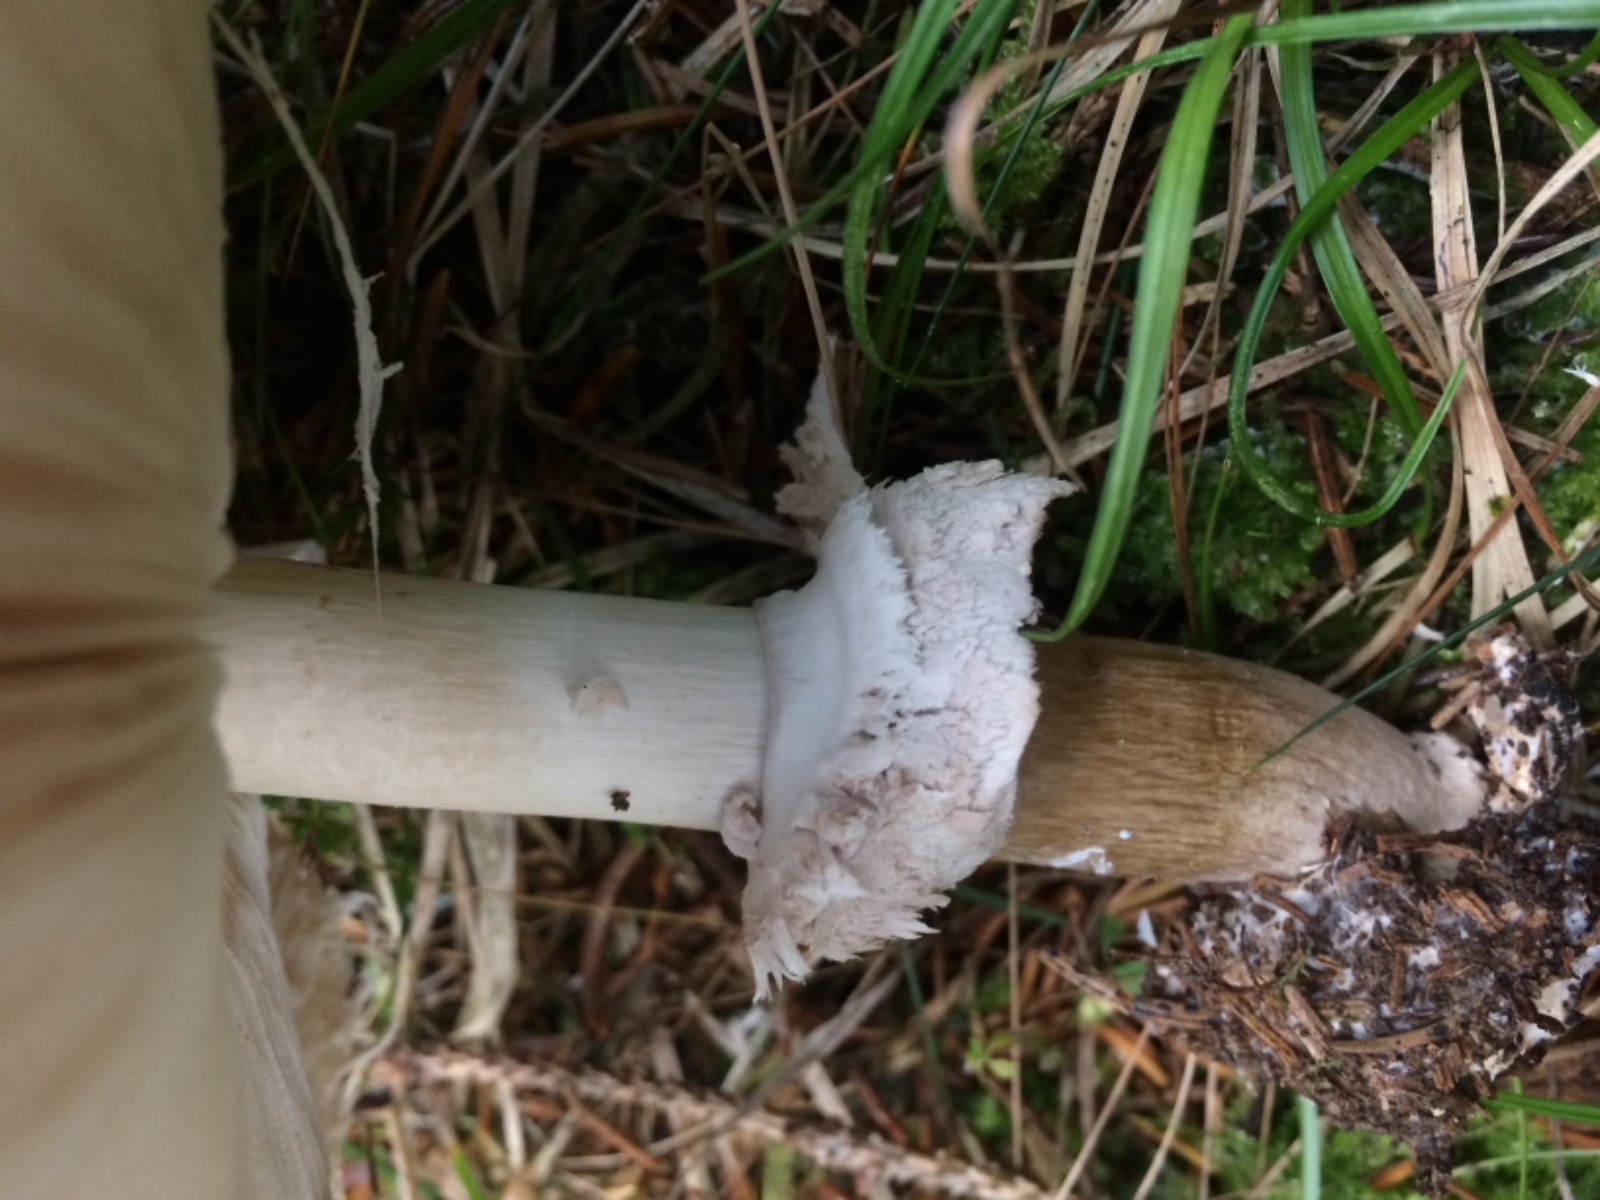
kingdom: Fungi
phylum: Basidiomycota
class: Agaricomycetes
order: Agaricales
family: Agaricaceae
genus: Chlorophyllum
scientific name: Chlorophyllum olivieri
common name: almindelig rabarberhat
